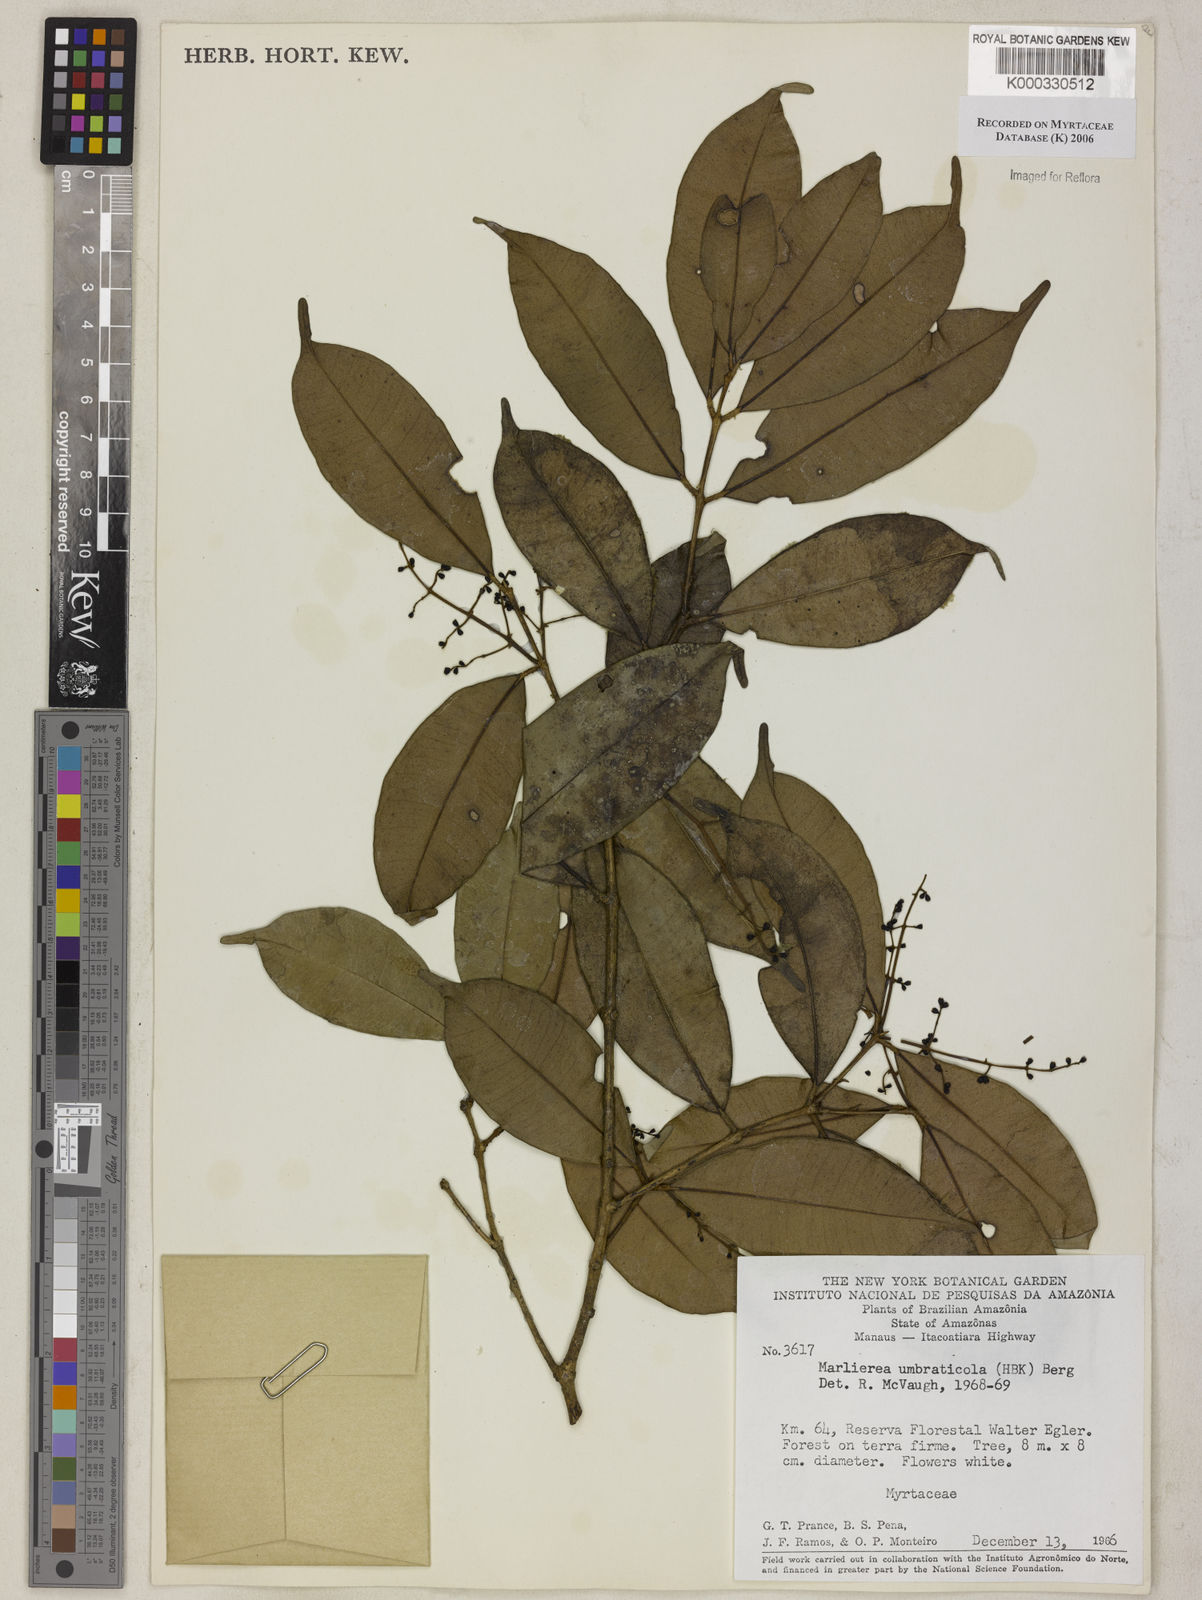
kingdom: Plantae
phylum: Tracheophyta
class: Magnoliopsida
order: Myrtales
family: Myrtaceae
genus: Myrcia
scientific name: Myrcia umbraticola
